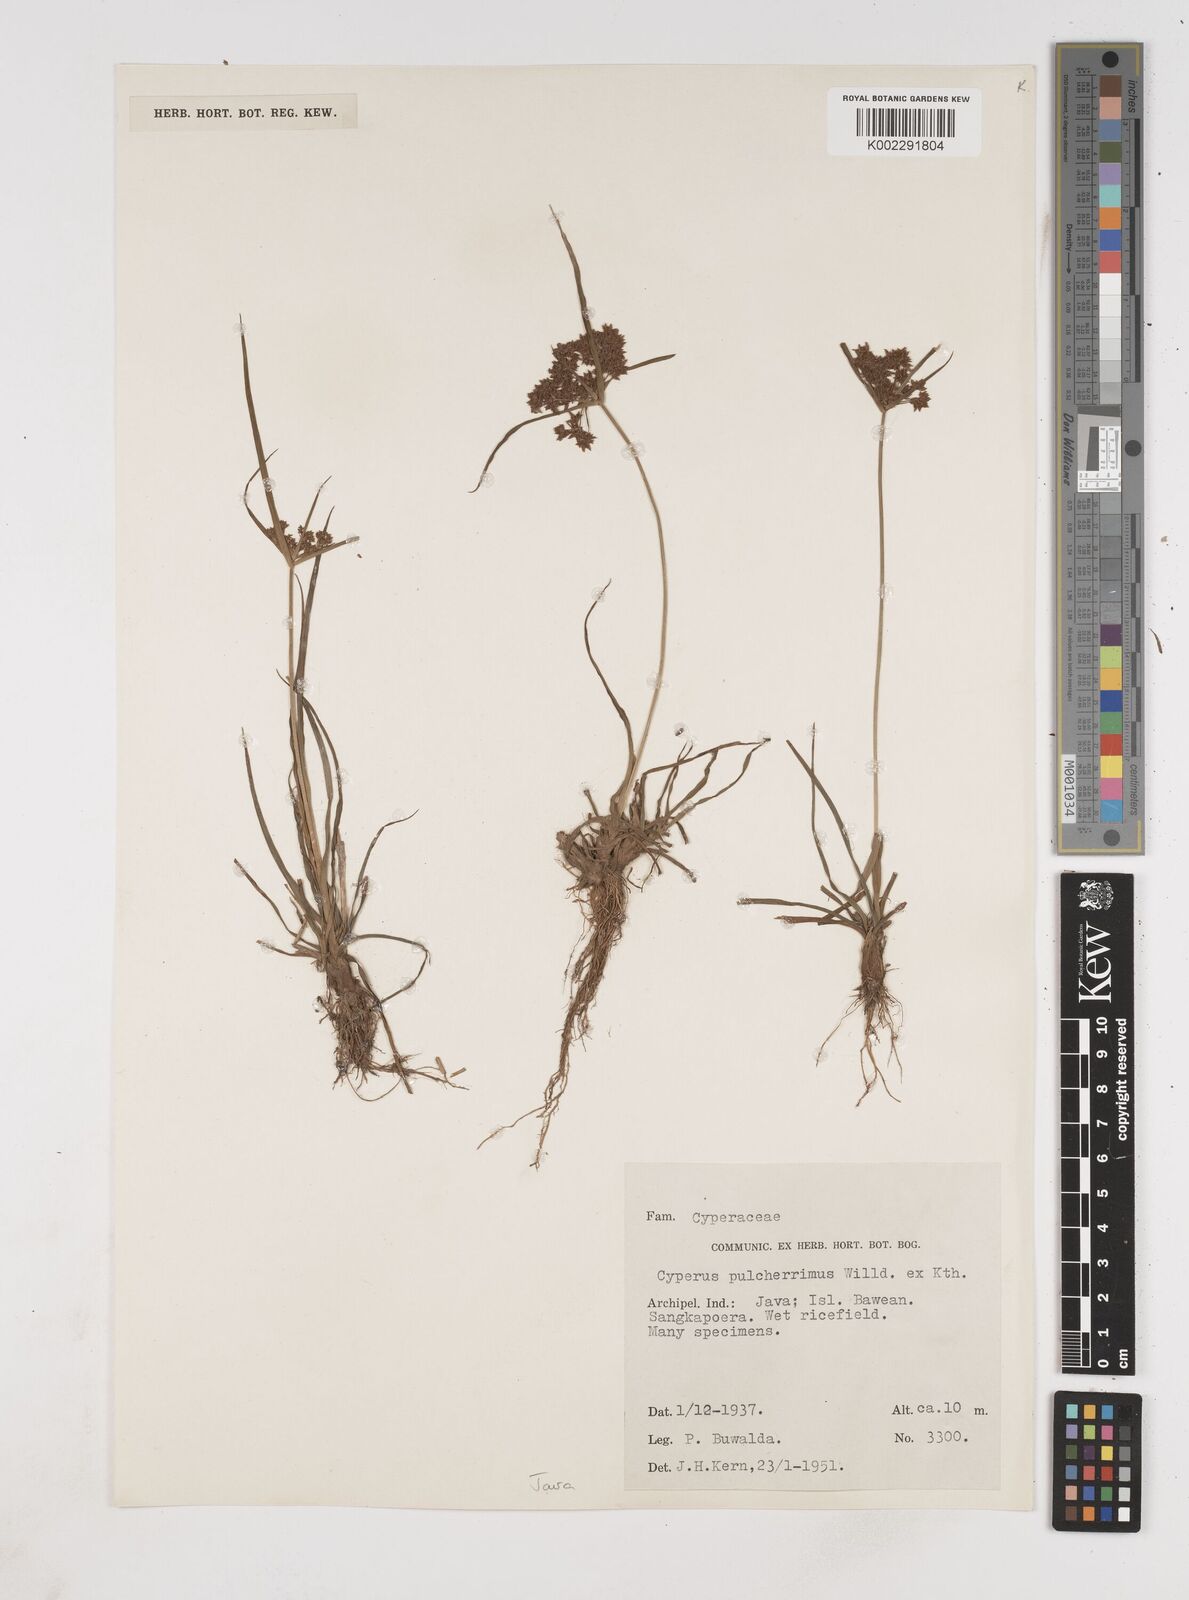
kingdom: Plantae
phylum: Tracheophyta
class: Liliopsida
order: Poales
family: Cyperaceae
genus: Cyperus
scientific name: Cyperus pulcherrimus
